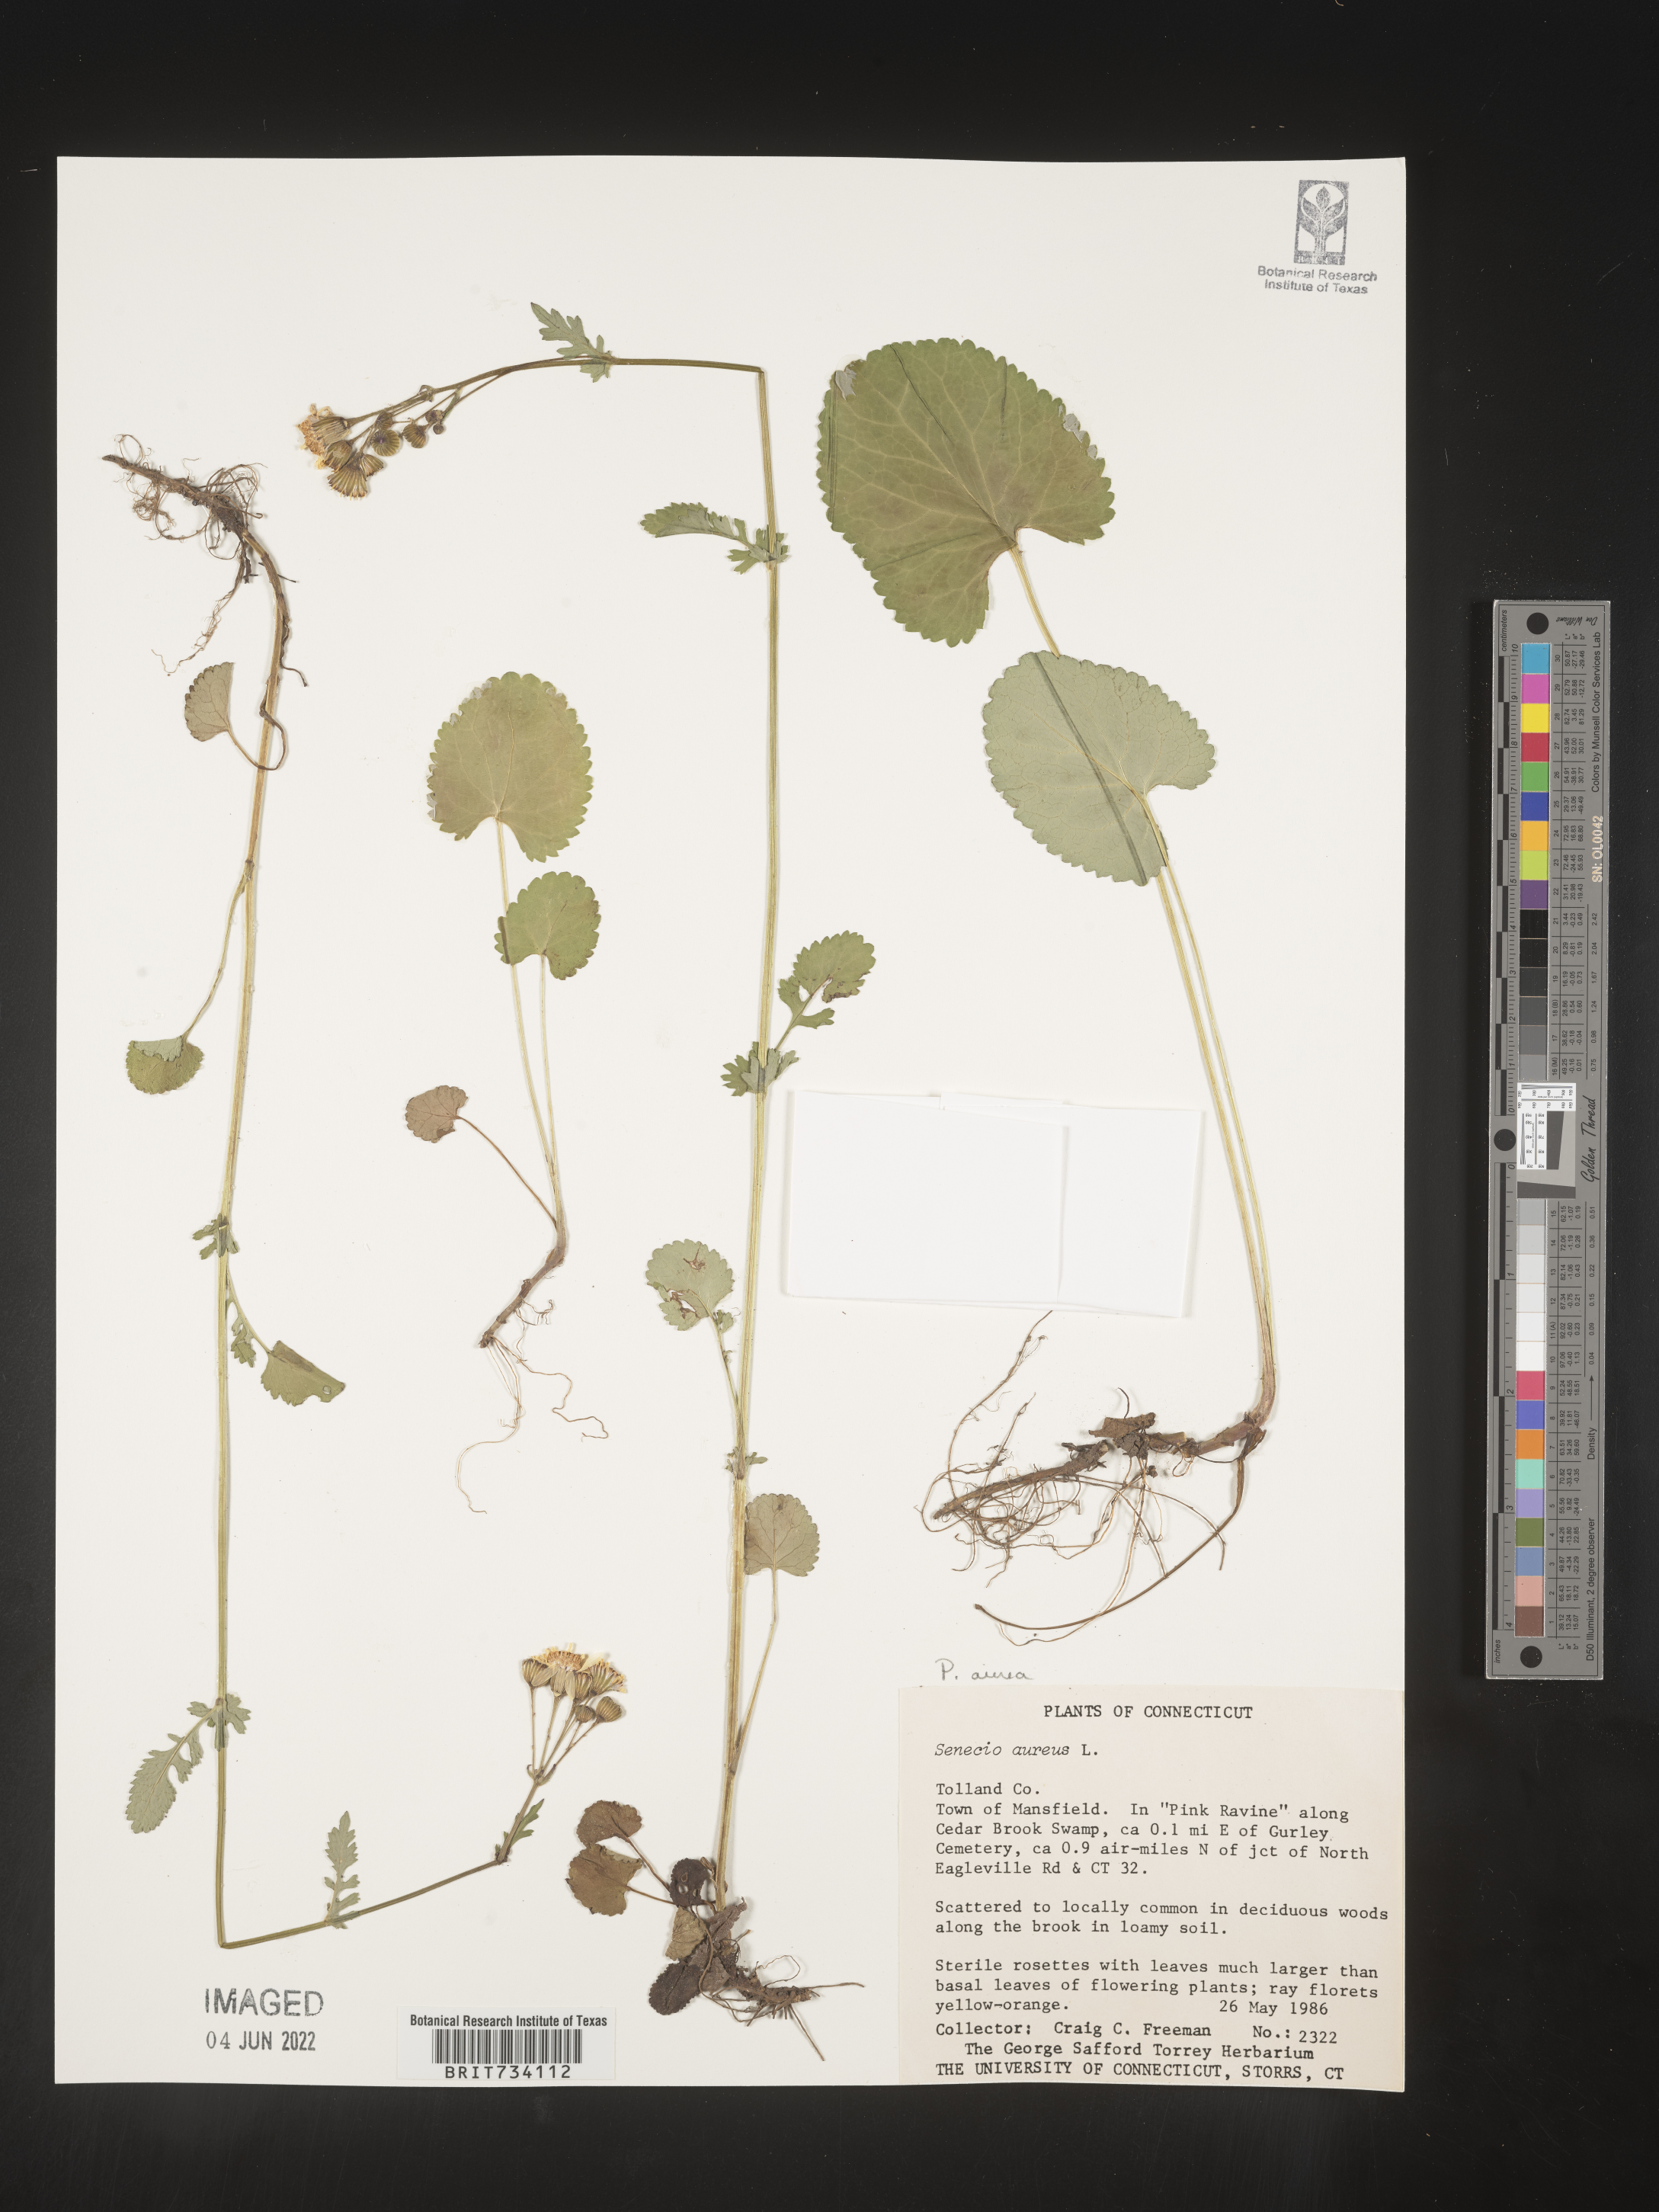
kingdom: Plantae
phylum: Tracheophyta
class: Magnoliopsida
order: Asterales
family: Asteraceae
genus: Packera
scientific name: Packera aurea
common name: Golden groundsel
